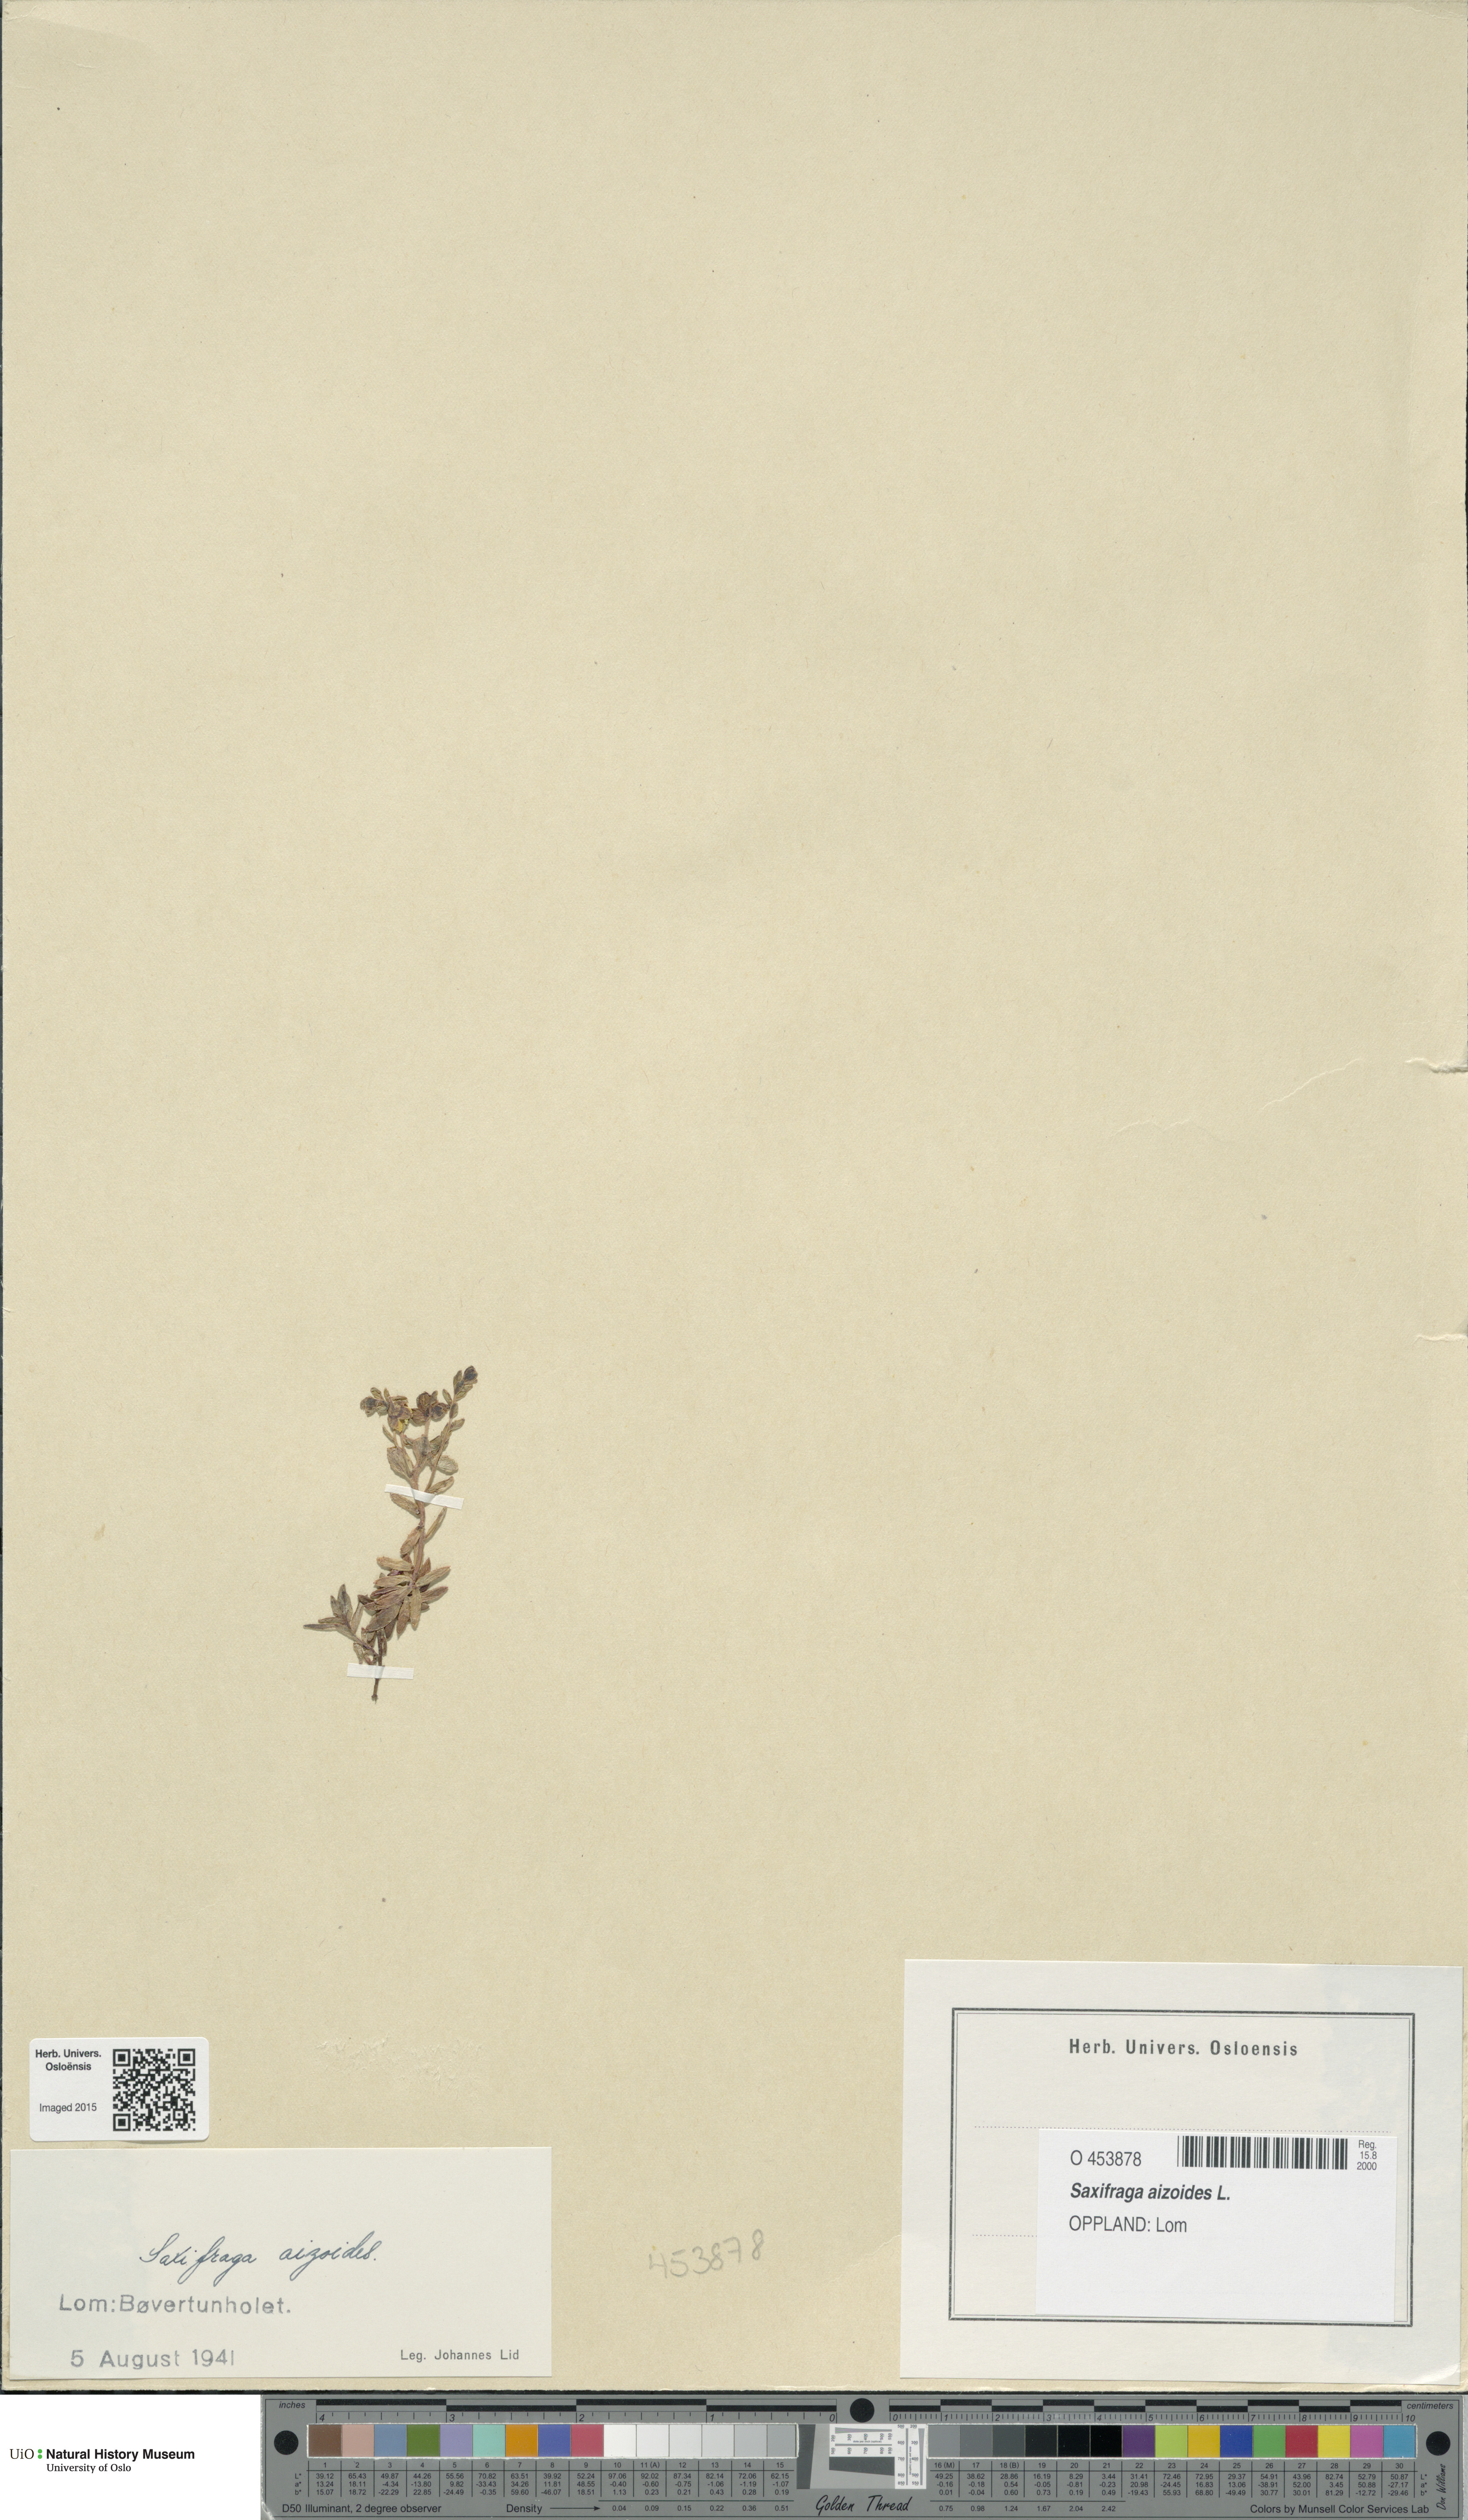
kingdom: Plantae
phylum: Tracheophyta
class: Magnoliopsida
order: Saxifragales
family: Saxifragaceae
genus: Saxifraga
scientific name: Saxifraga aizoides
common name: Yellow mountain saxifrage
